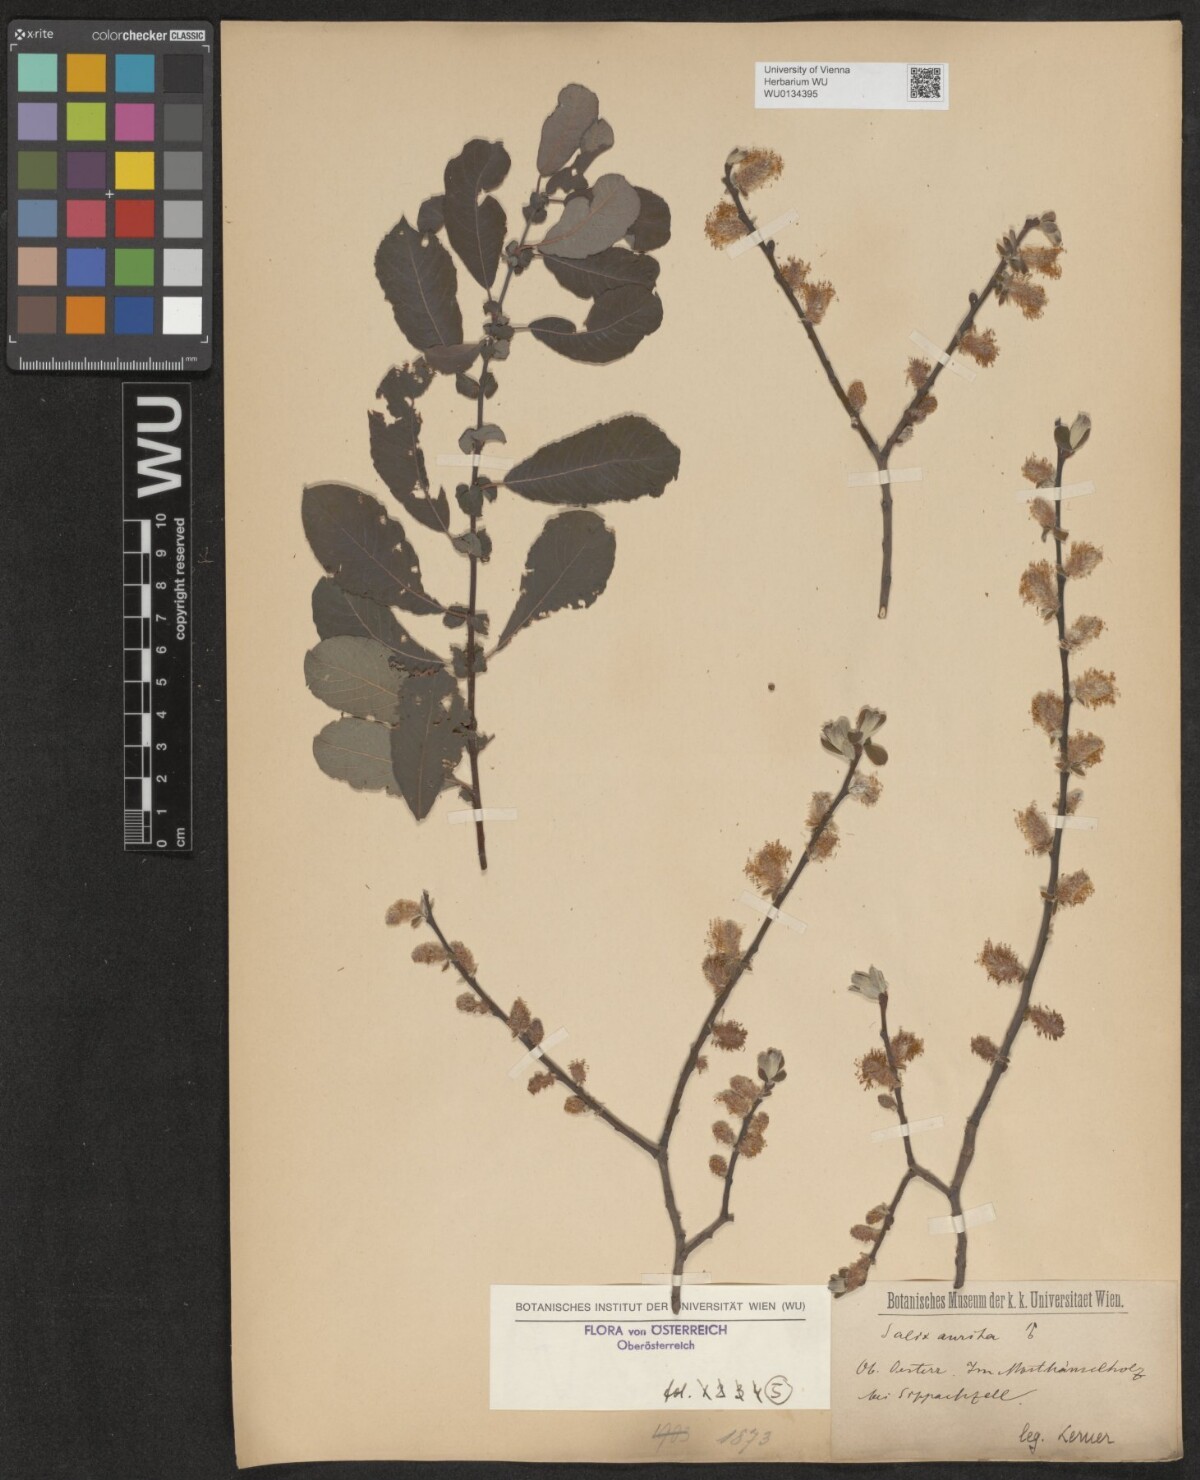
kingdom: Plantae
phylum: Tracheophyta
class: Magnoliopsida
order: Malpighiales
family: Salicaceae
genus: Salix
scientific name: Salix aurita
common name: Eared willow
